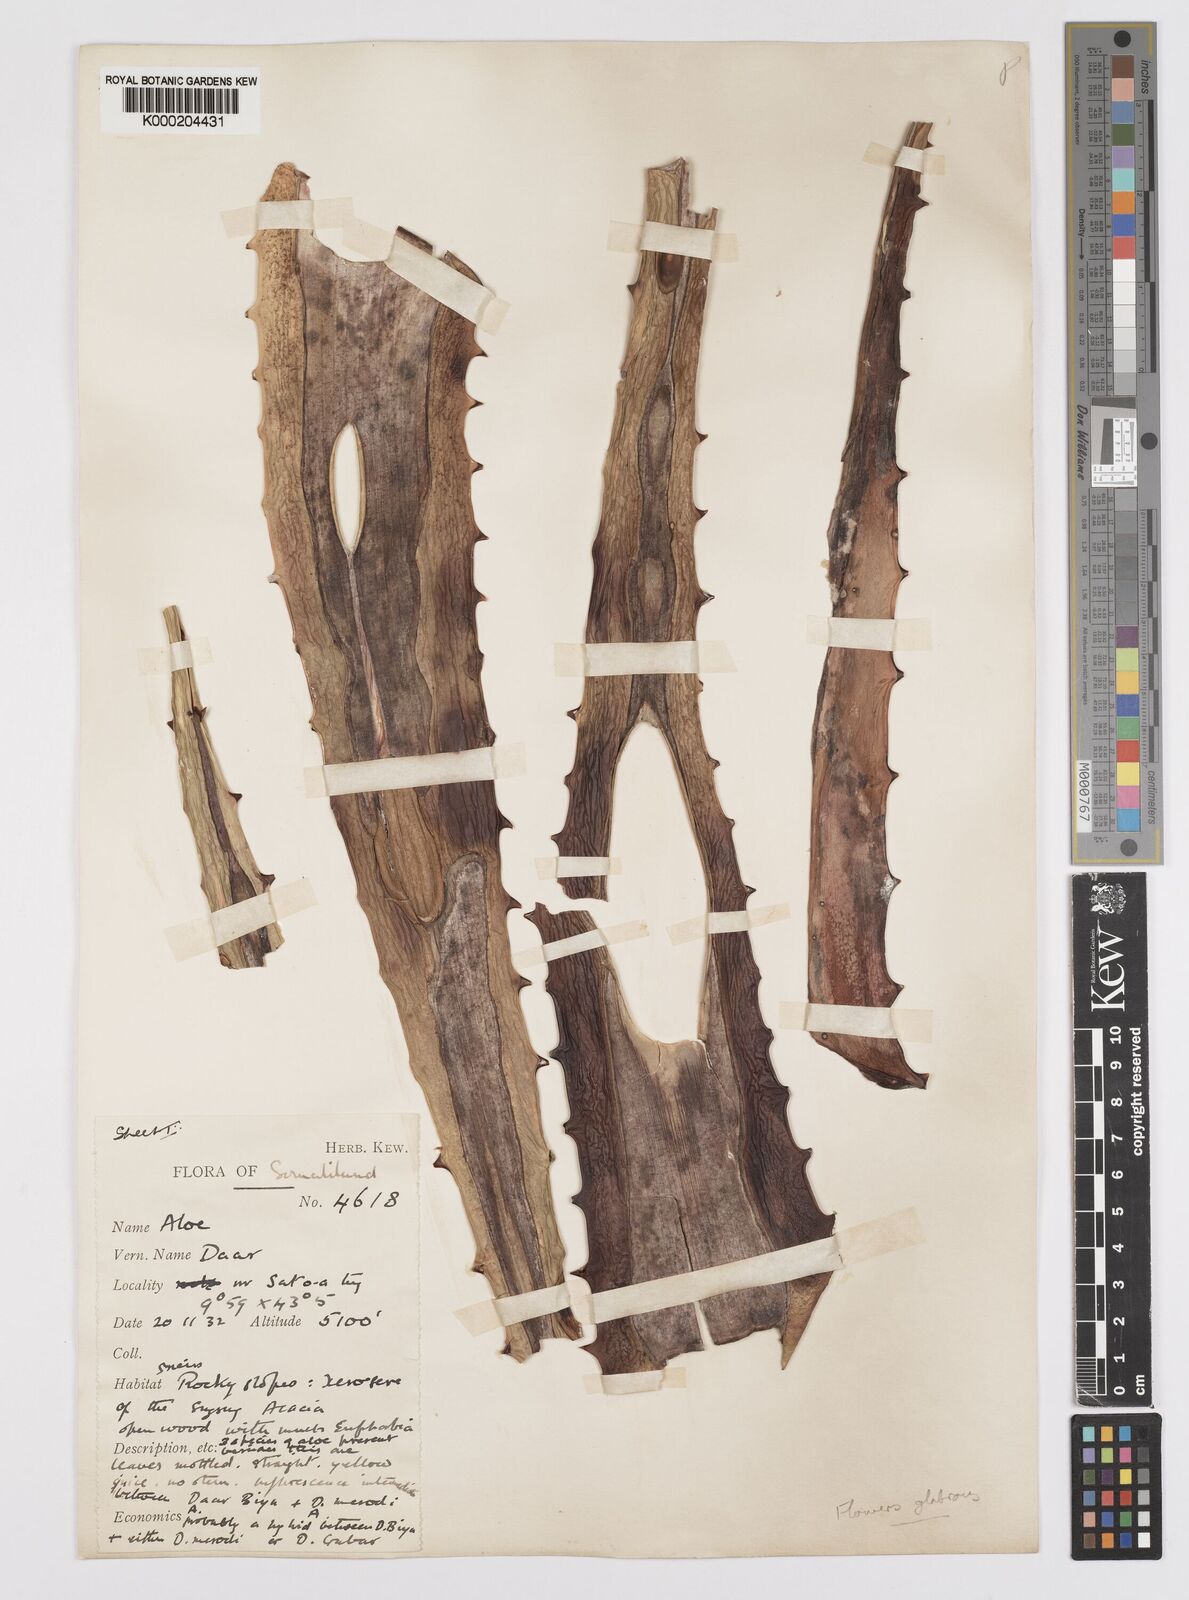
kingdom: Plantae
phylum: Tracheophyta
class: Liliopsida
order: Asparagales
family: Asphodelaceae
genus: Aloe
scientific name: Aloe rigens
